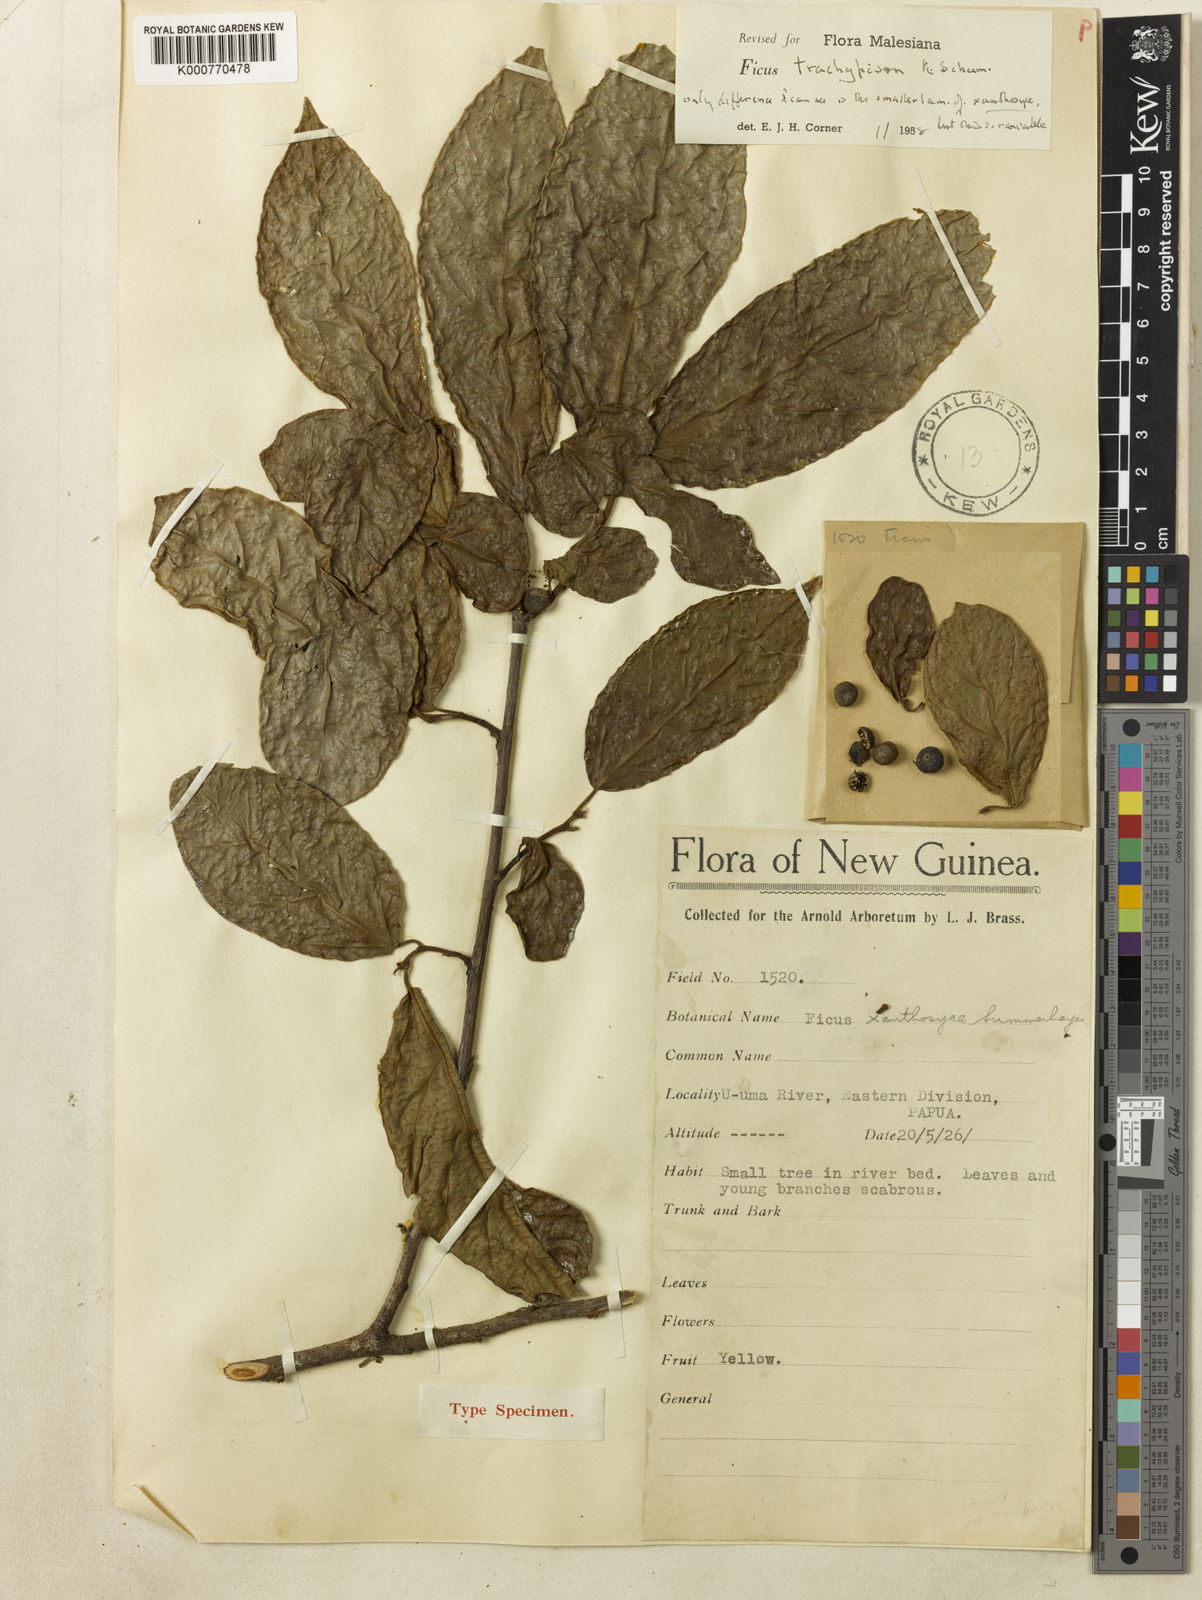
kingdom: Plantae
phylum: Tracheophyta
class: Magnoliopsida
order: Rosales
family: Moraceae
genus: Ficus
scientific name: Ficus trachypison
